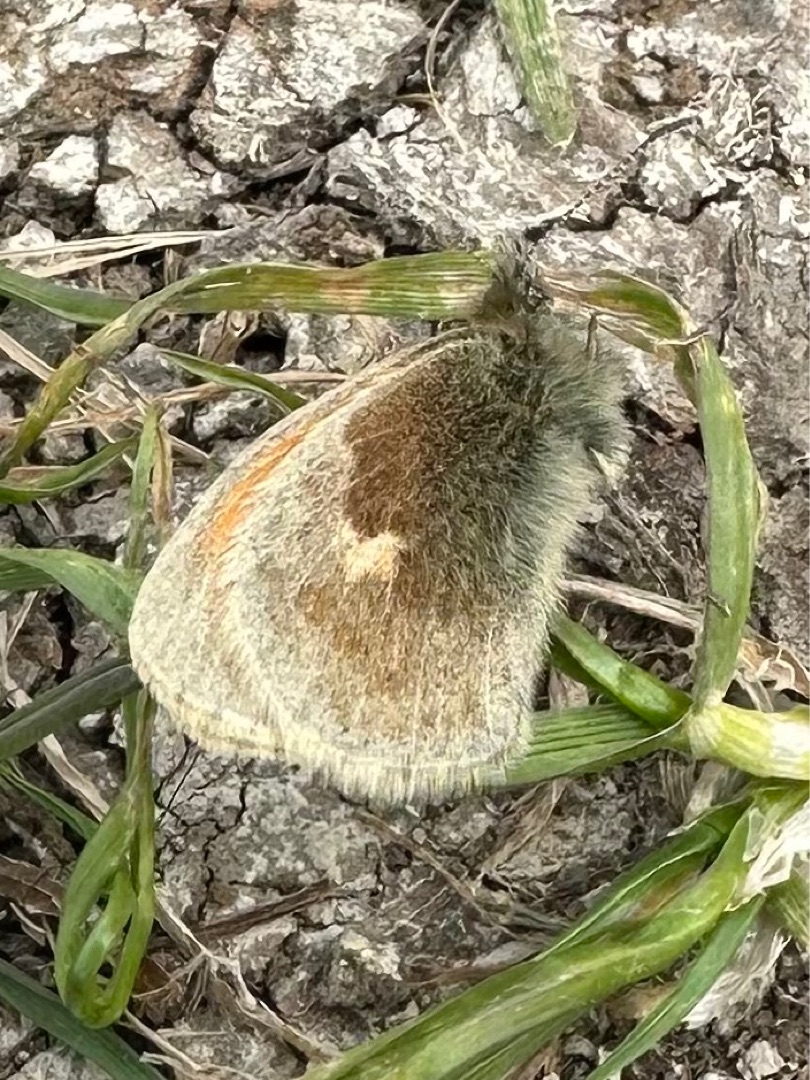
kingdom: Animalia
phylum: Arthropoda
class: Insecta
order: Lepidoptera
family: Nymphalidae
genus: Coenonympha
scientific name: Coenonympha pamphilus
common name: Okkergul randøje
